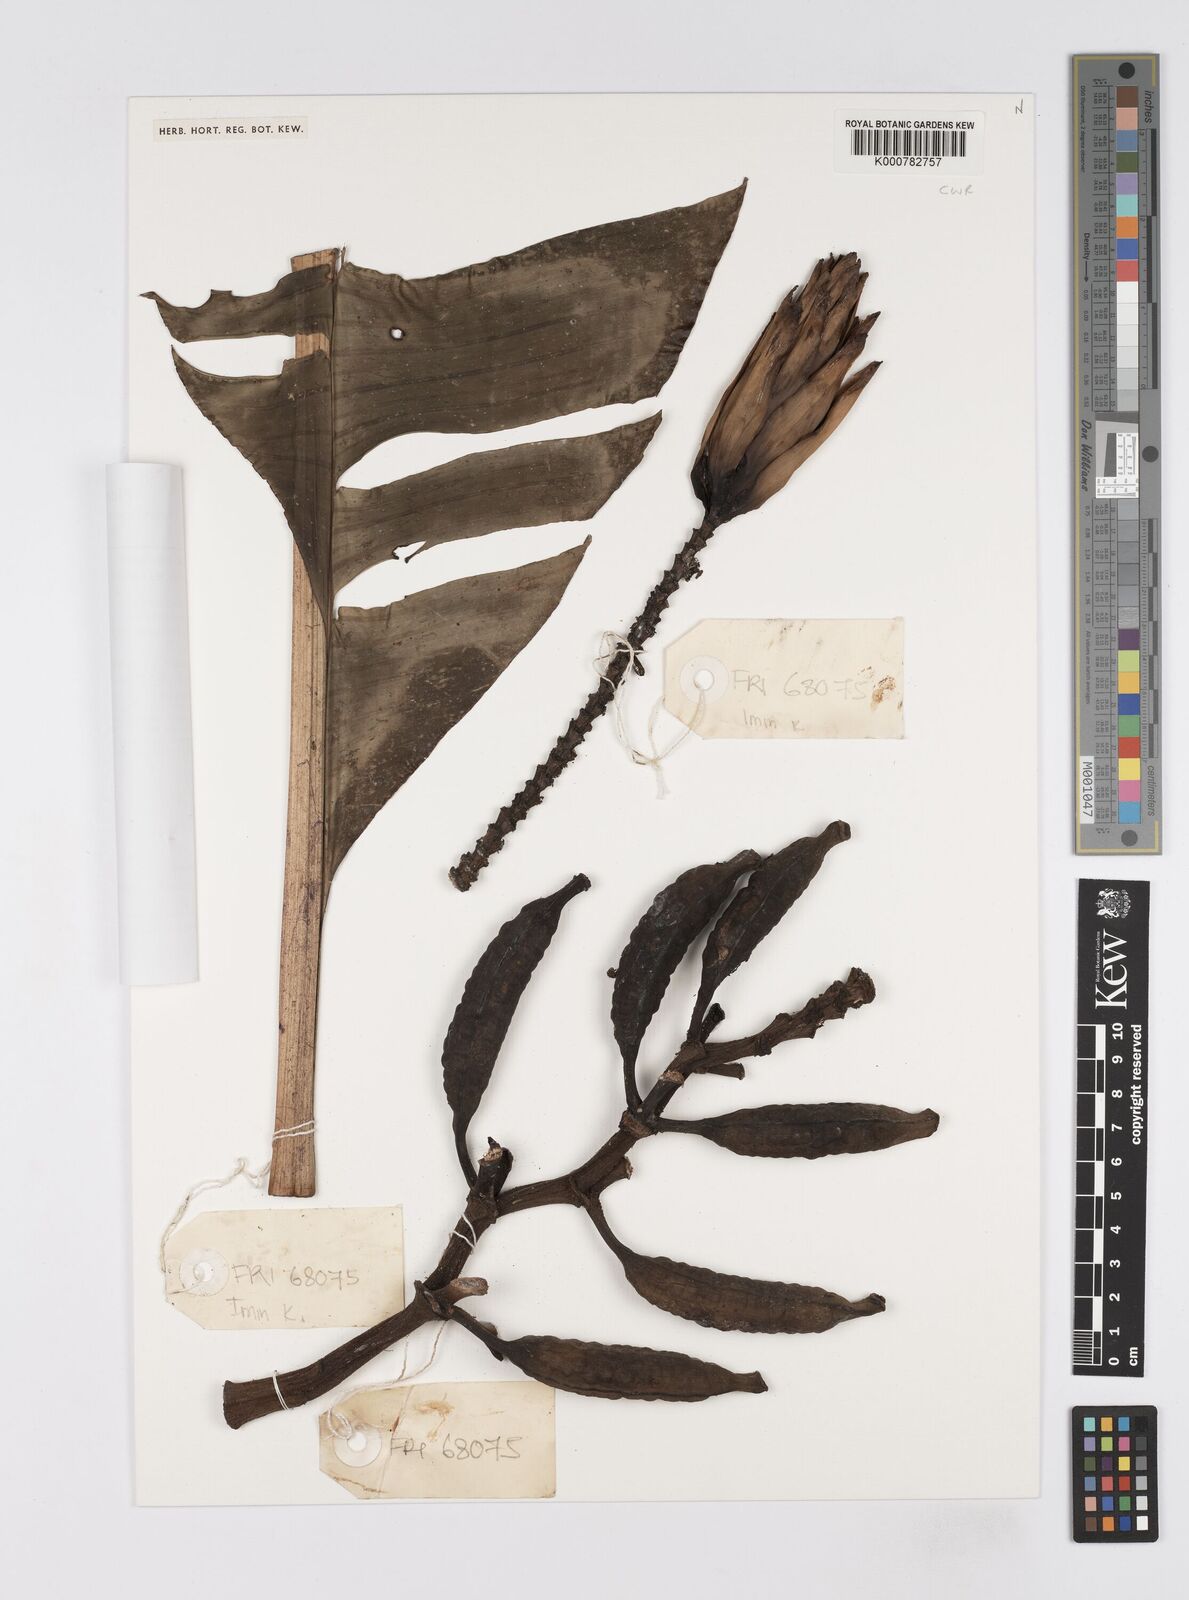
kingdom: Plantae
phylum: Tracheophyta
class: Liliopsida
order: Zingiberales
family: Musaceae
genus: Musa
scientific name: Musa gracilis
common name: Johore banana
